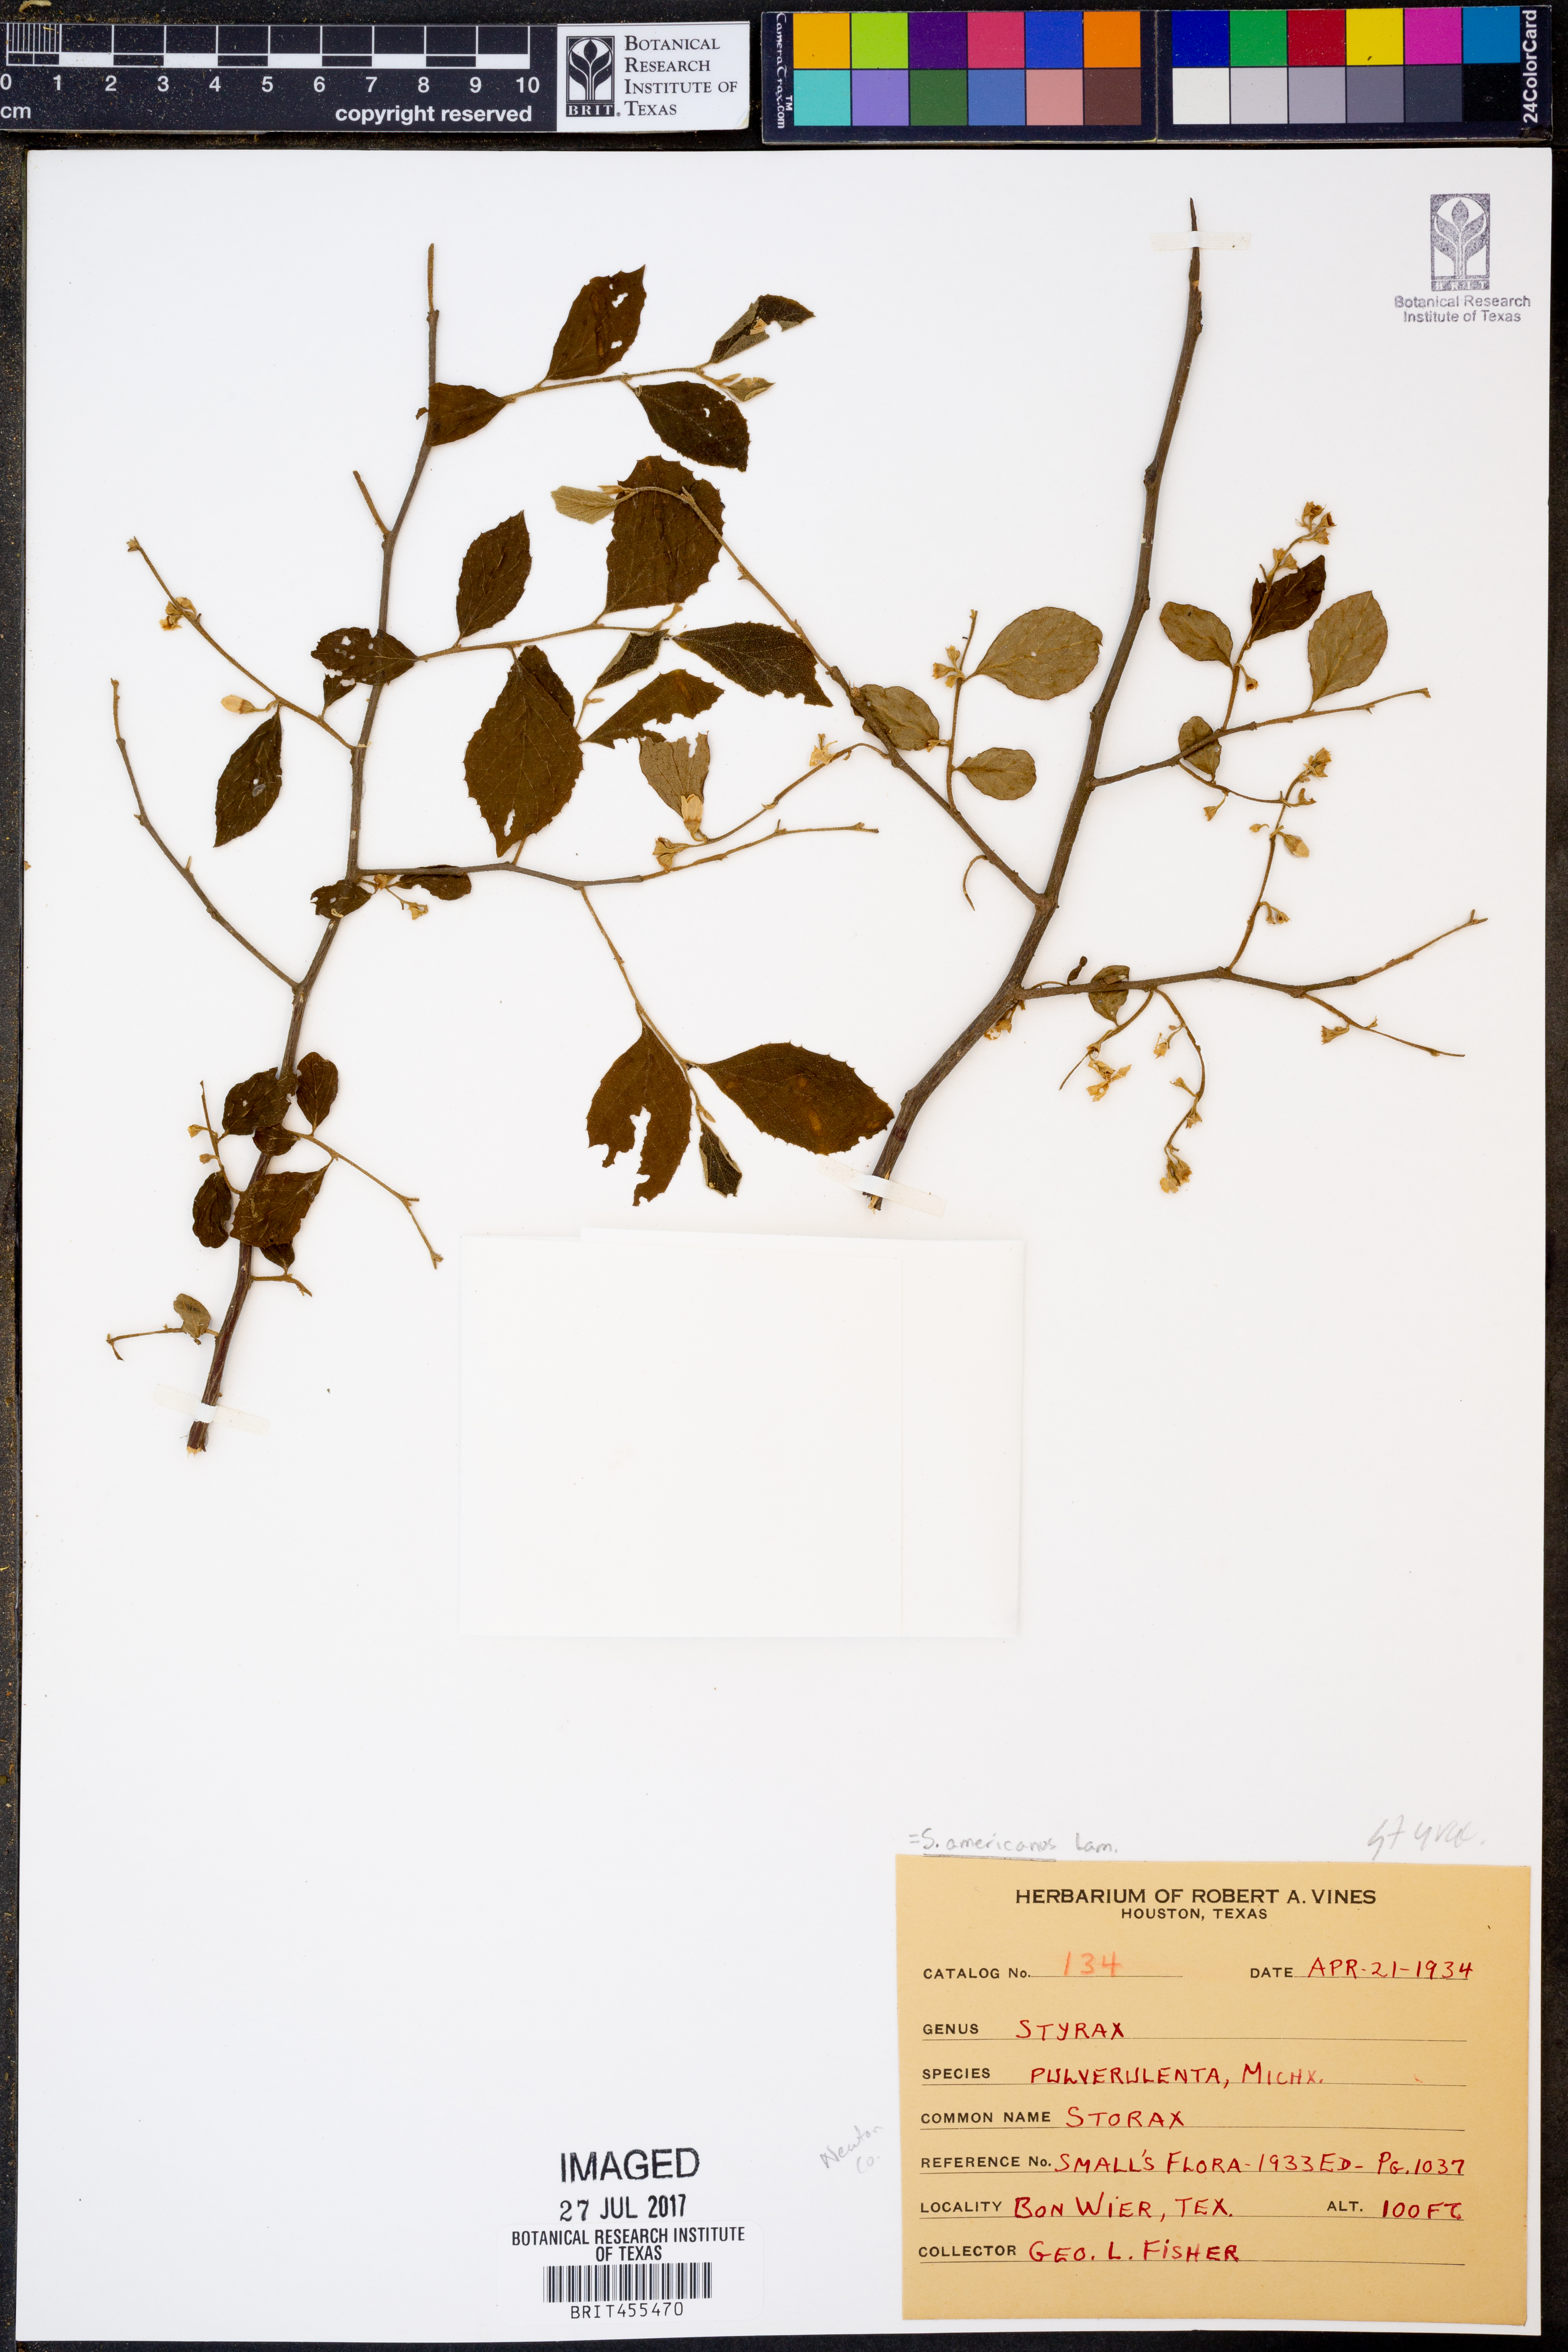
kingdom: Plantae
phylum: Tracheophyta
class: Magnoliopsida
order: Ericales
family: Styracaceae
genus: Styrax
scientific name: Styrax americanus
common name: American snowbell
